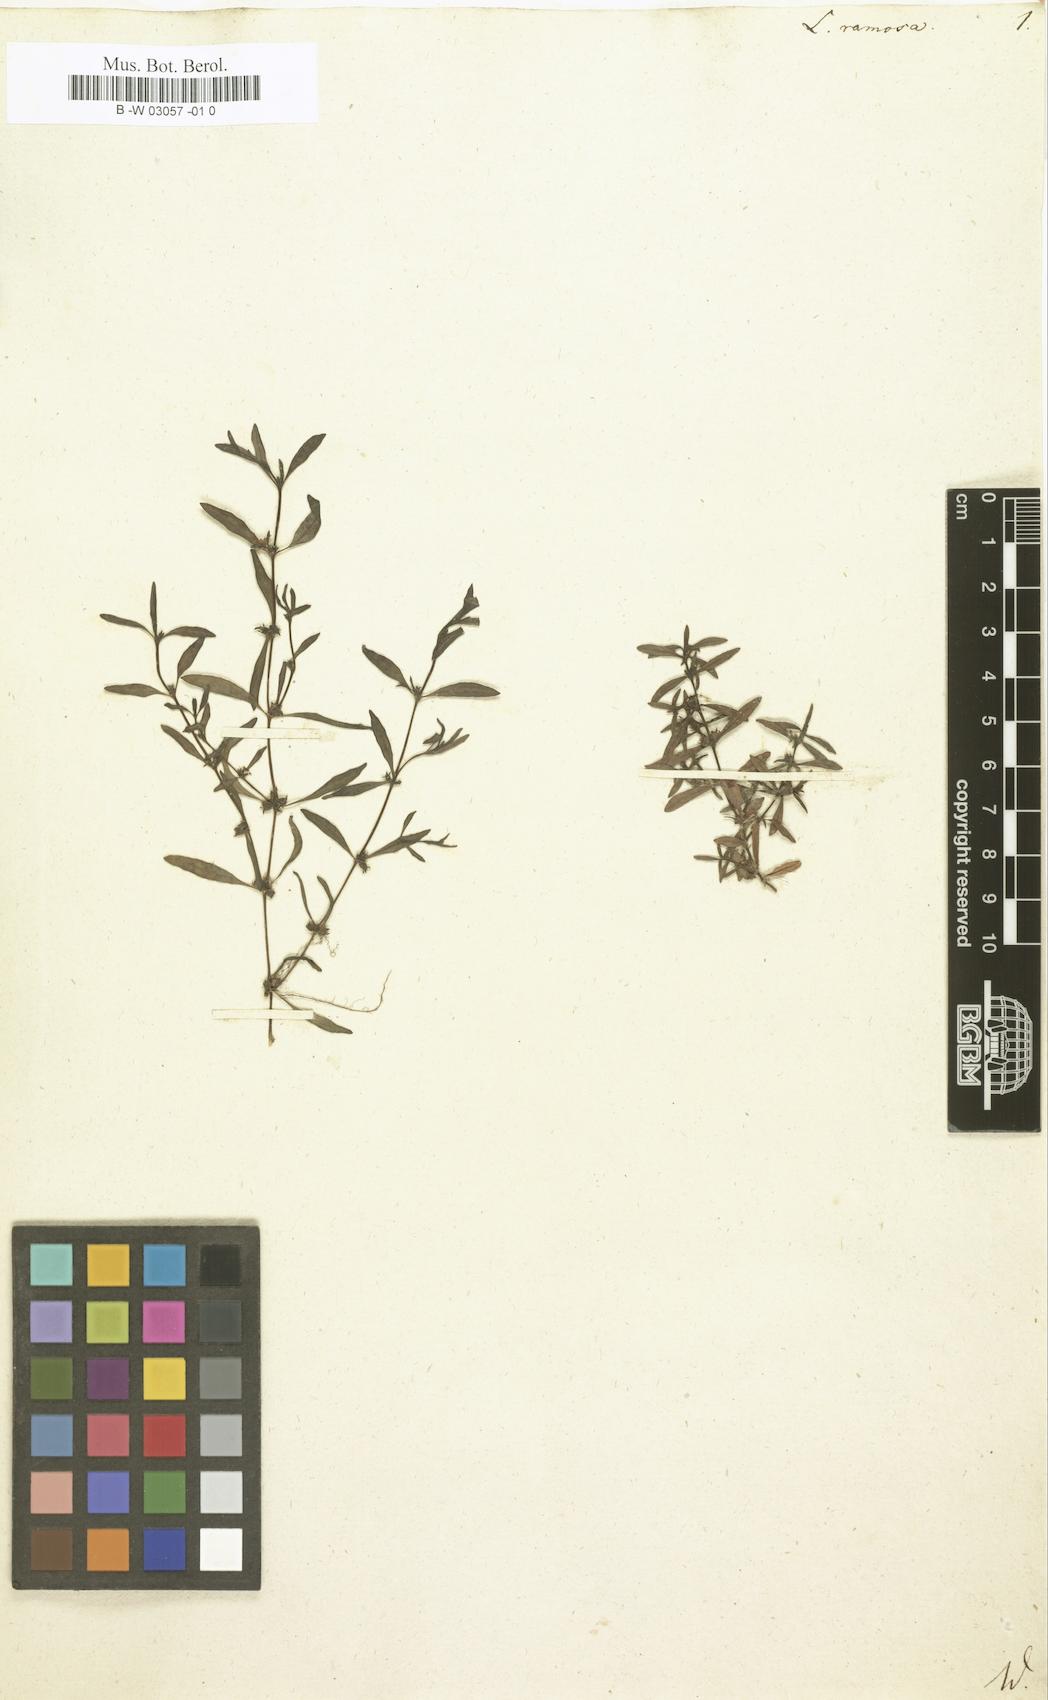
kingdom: Plantae
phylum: Tracheophyta
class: Magnoliopsida
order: Myrtales
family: Onagraceae
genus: Ludwigia
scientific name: Ludwigia ramosa
